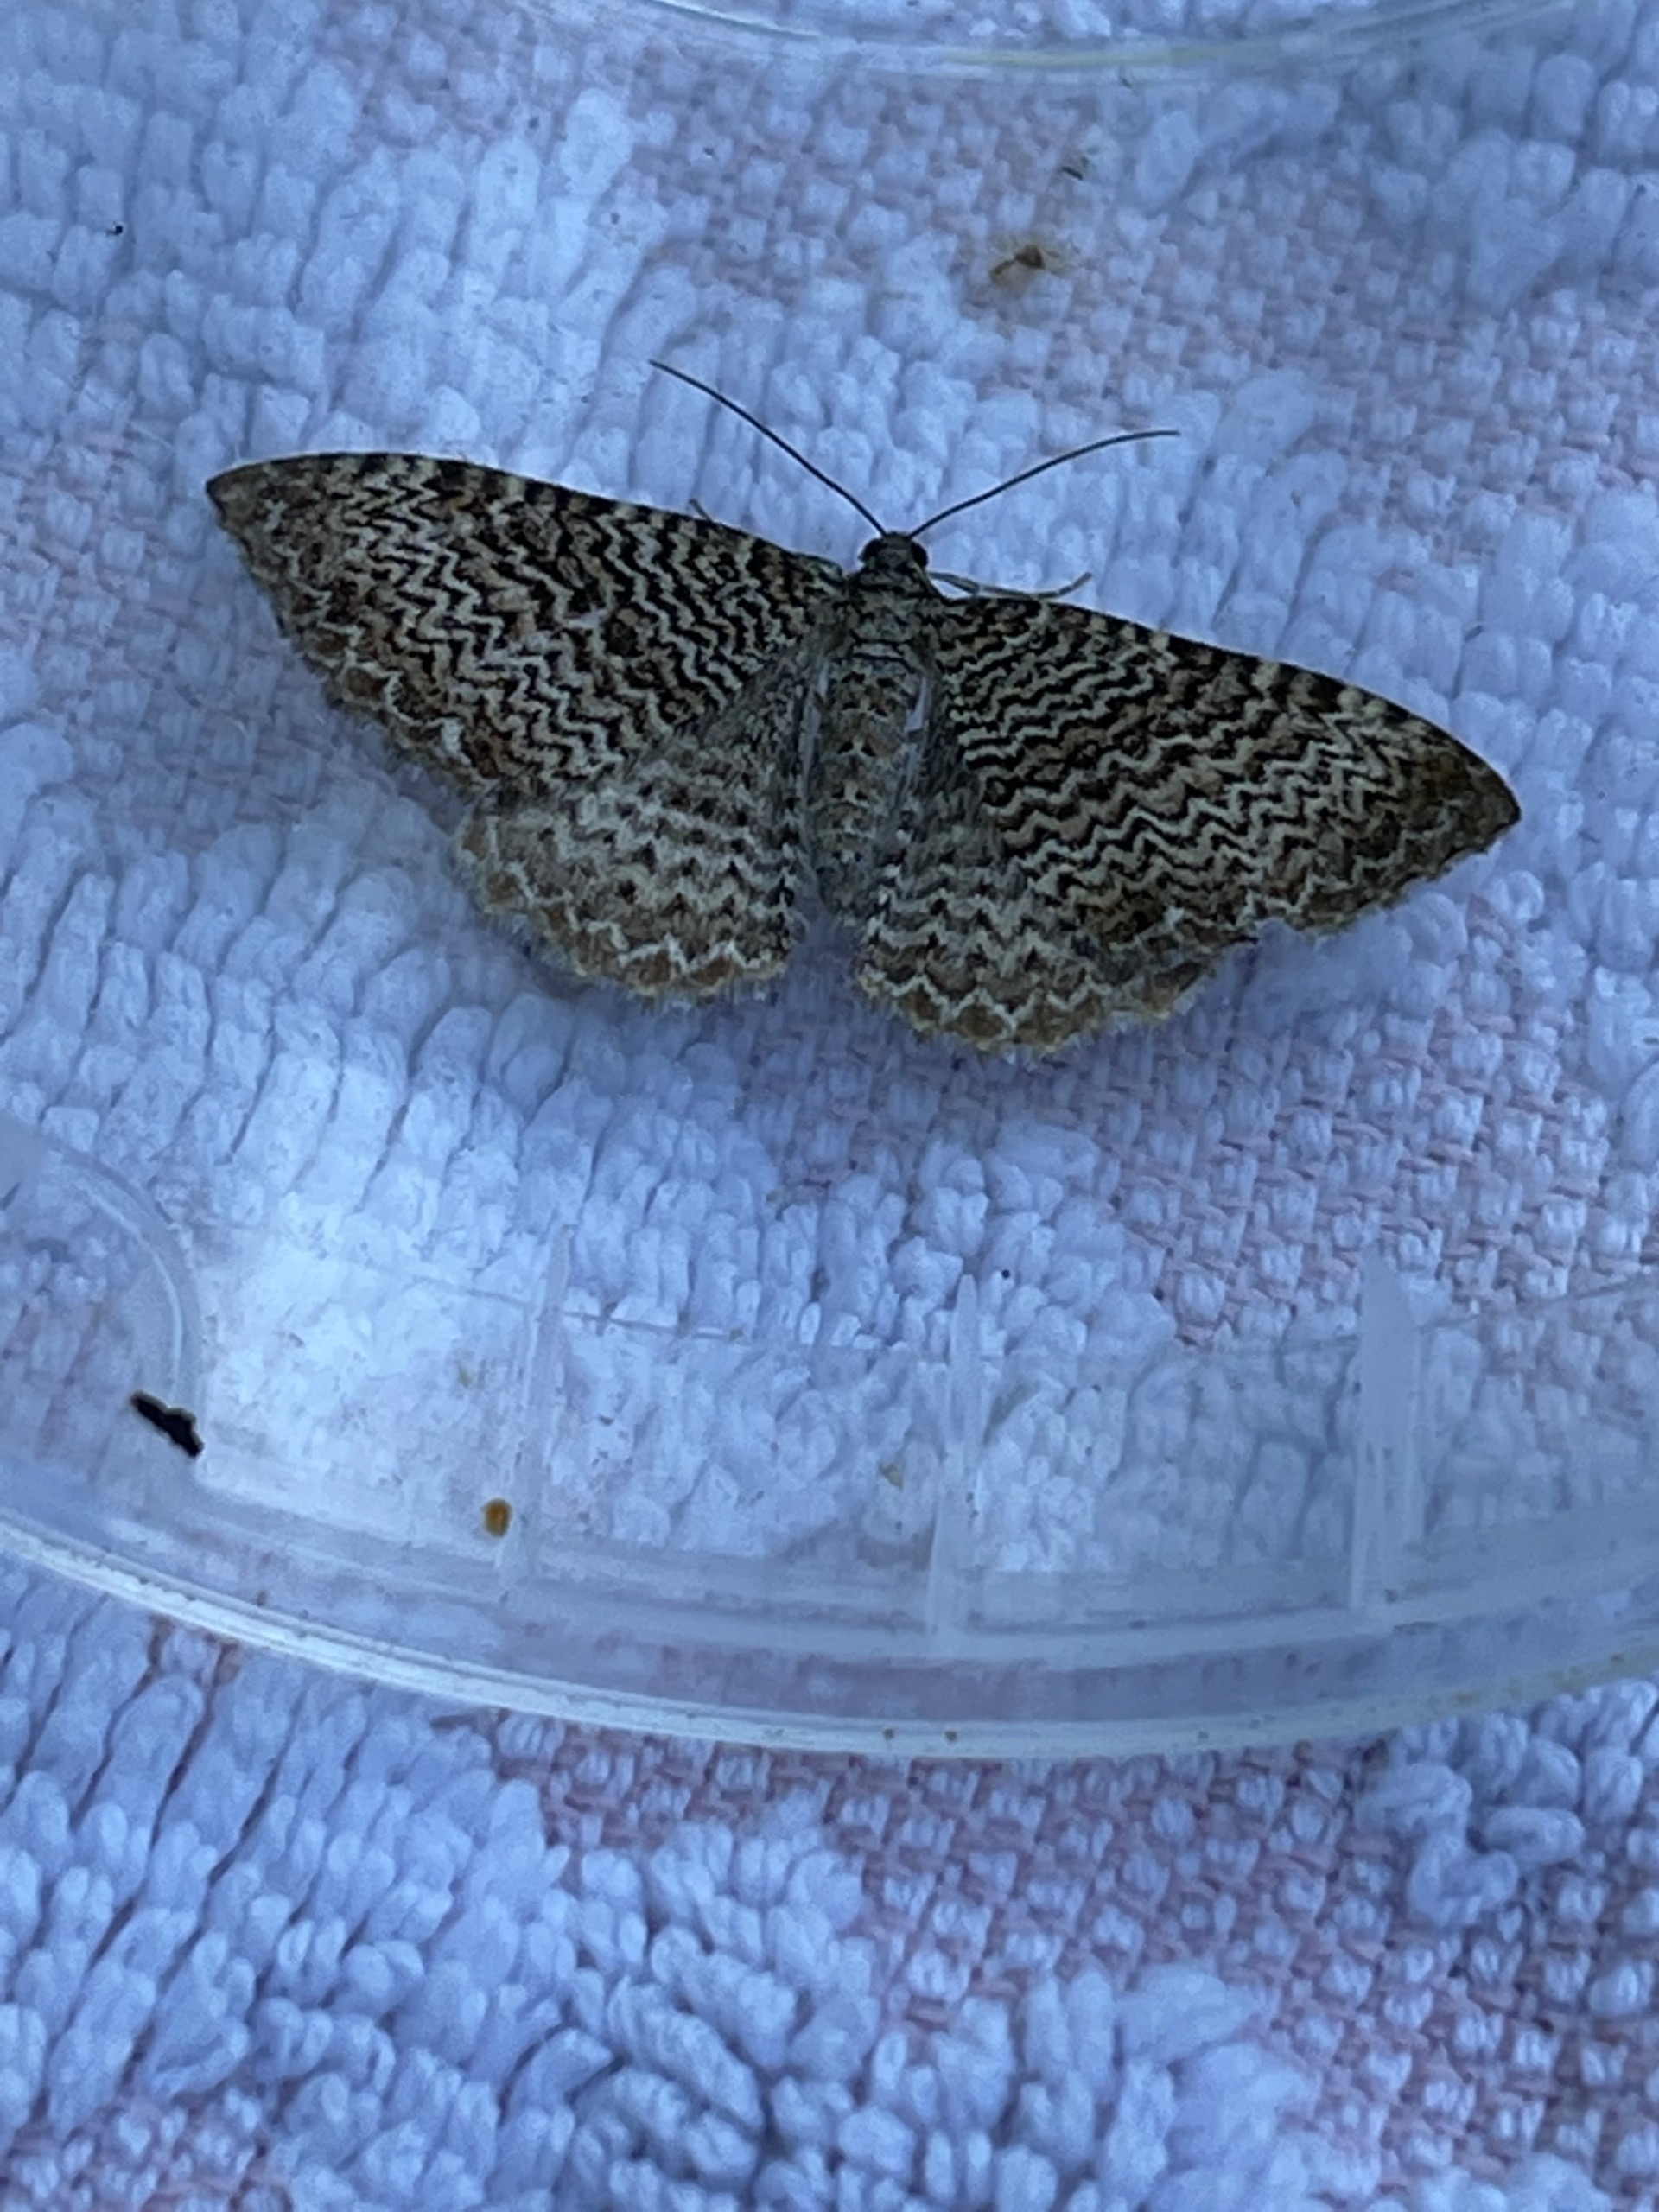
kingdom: Animalia
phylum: Arthropoda
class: Insecta
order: Lepidoptera
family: Geometridae
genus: Rheumaptera
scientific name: Rheumaptera undulata
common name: Bølget måler
